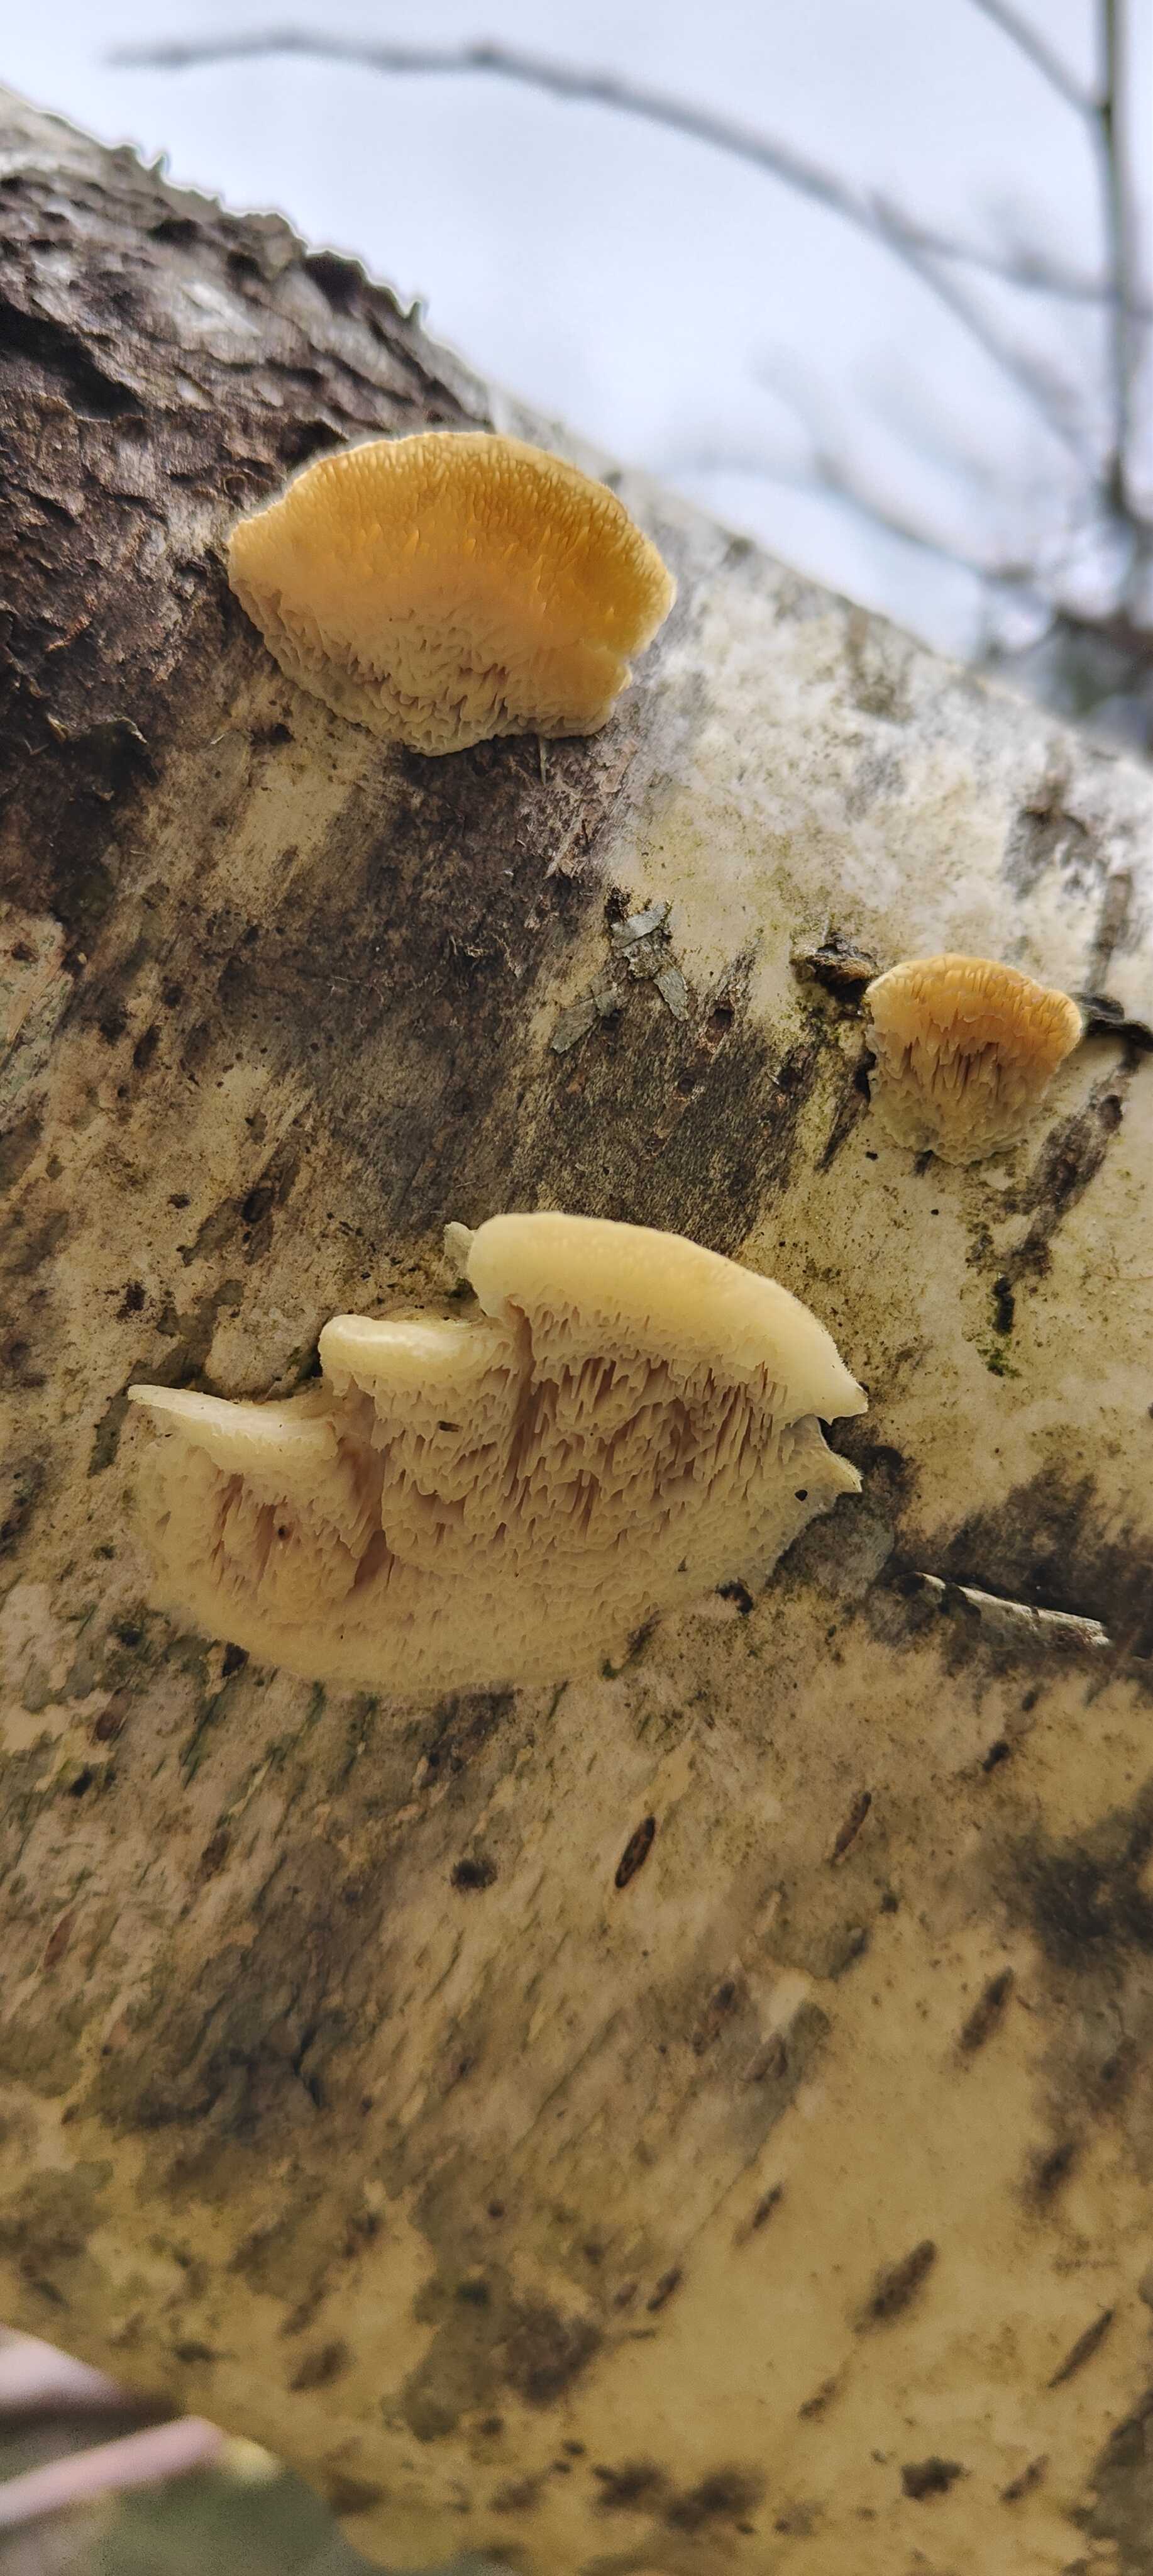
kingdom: Fungi
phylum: Basidiomycota
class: Agaricomycetes
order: Polyporales
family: Polyporaceae
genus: Trametes
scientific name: Trametes ochracea
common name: bæltet læderporesvamp
